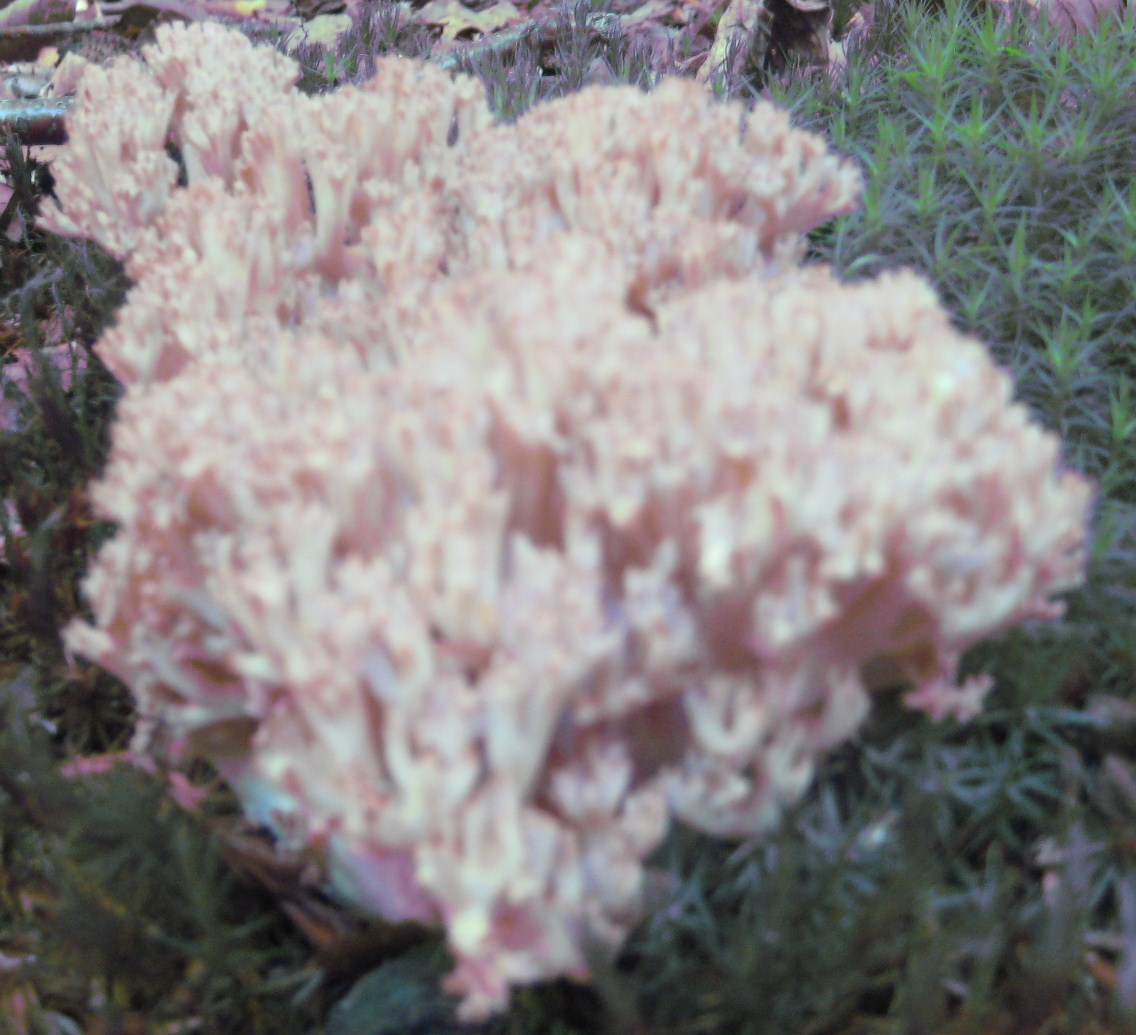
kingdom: Fungi
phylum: Basidiomycota
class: Agaricomycetes
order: Gomphales
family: Gomphaceae
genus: Ramaria
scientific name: Ramaria botrytis
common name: drue-koralsvamp
